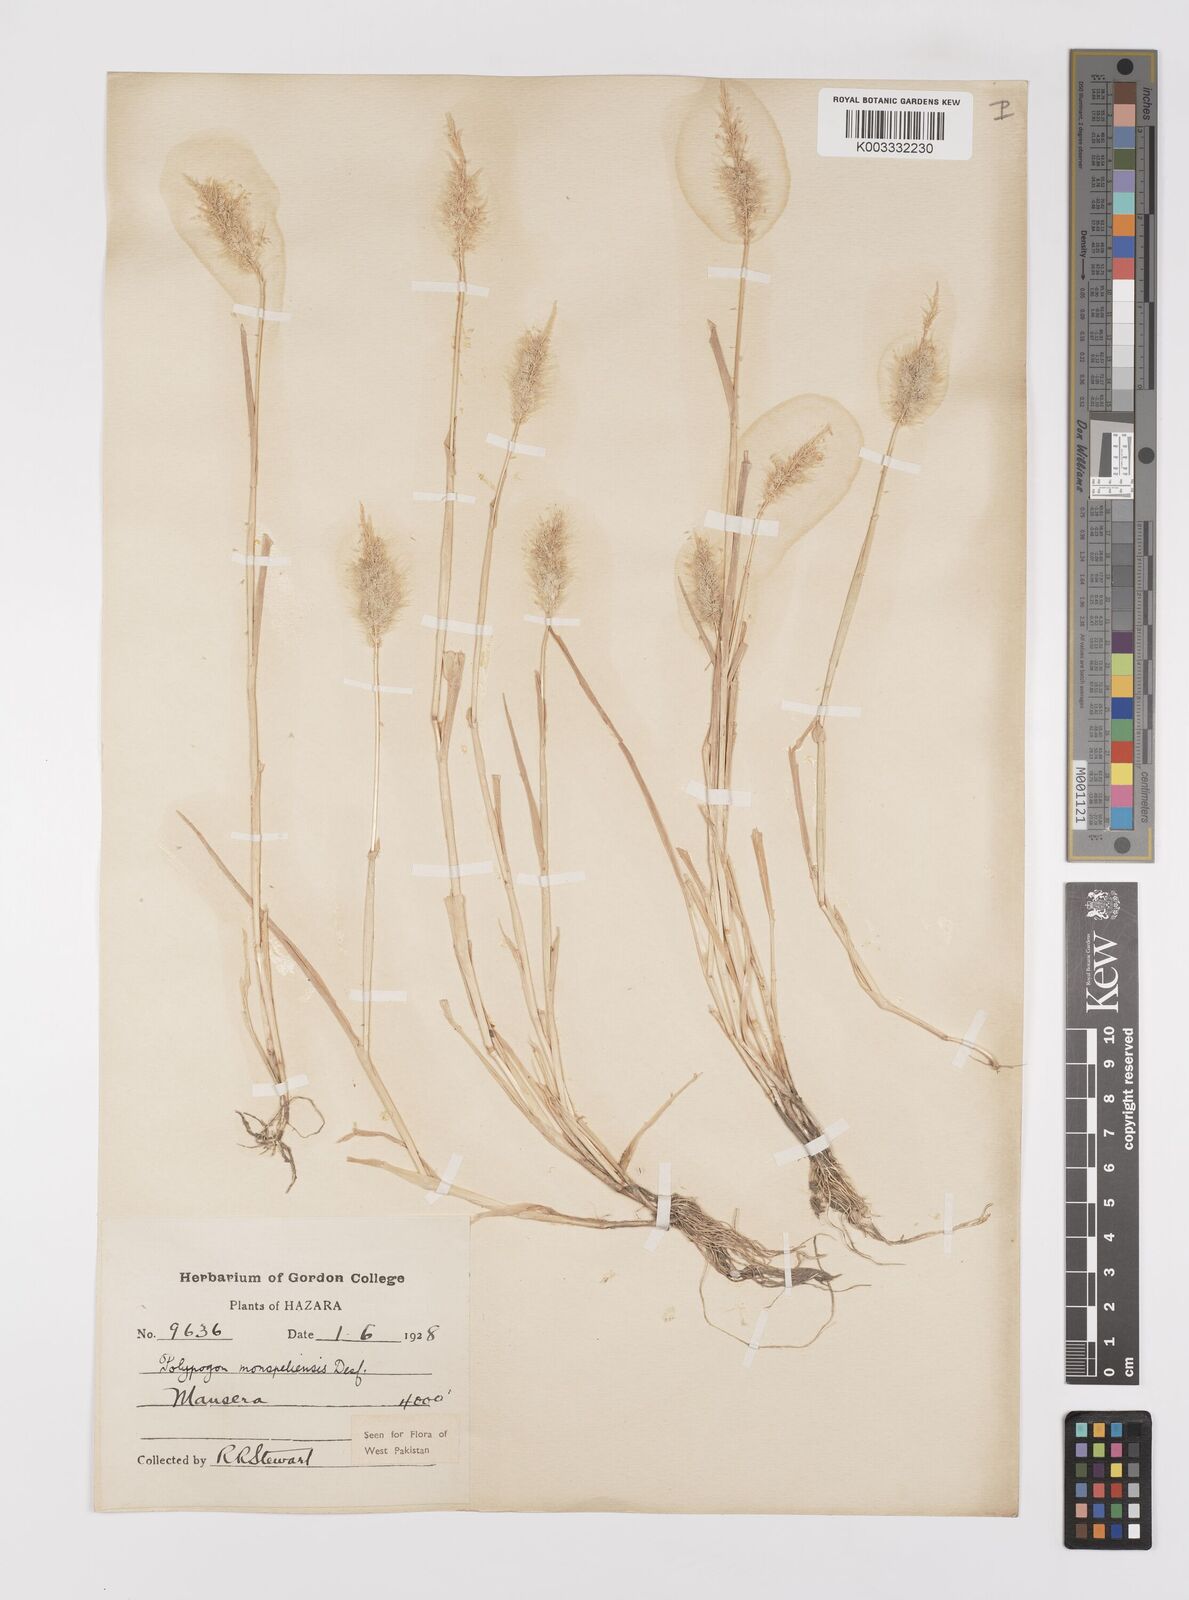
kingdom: Plantae
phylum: Tracheophyta
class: Liliopsida
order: Poales
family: Poaceae
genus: Polypogon
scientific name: Polypogon monspeliensis
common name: Annual rabbitsfoot grass
